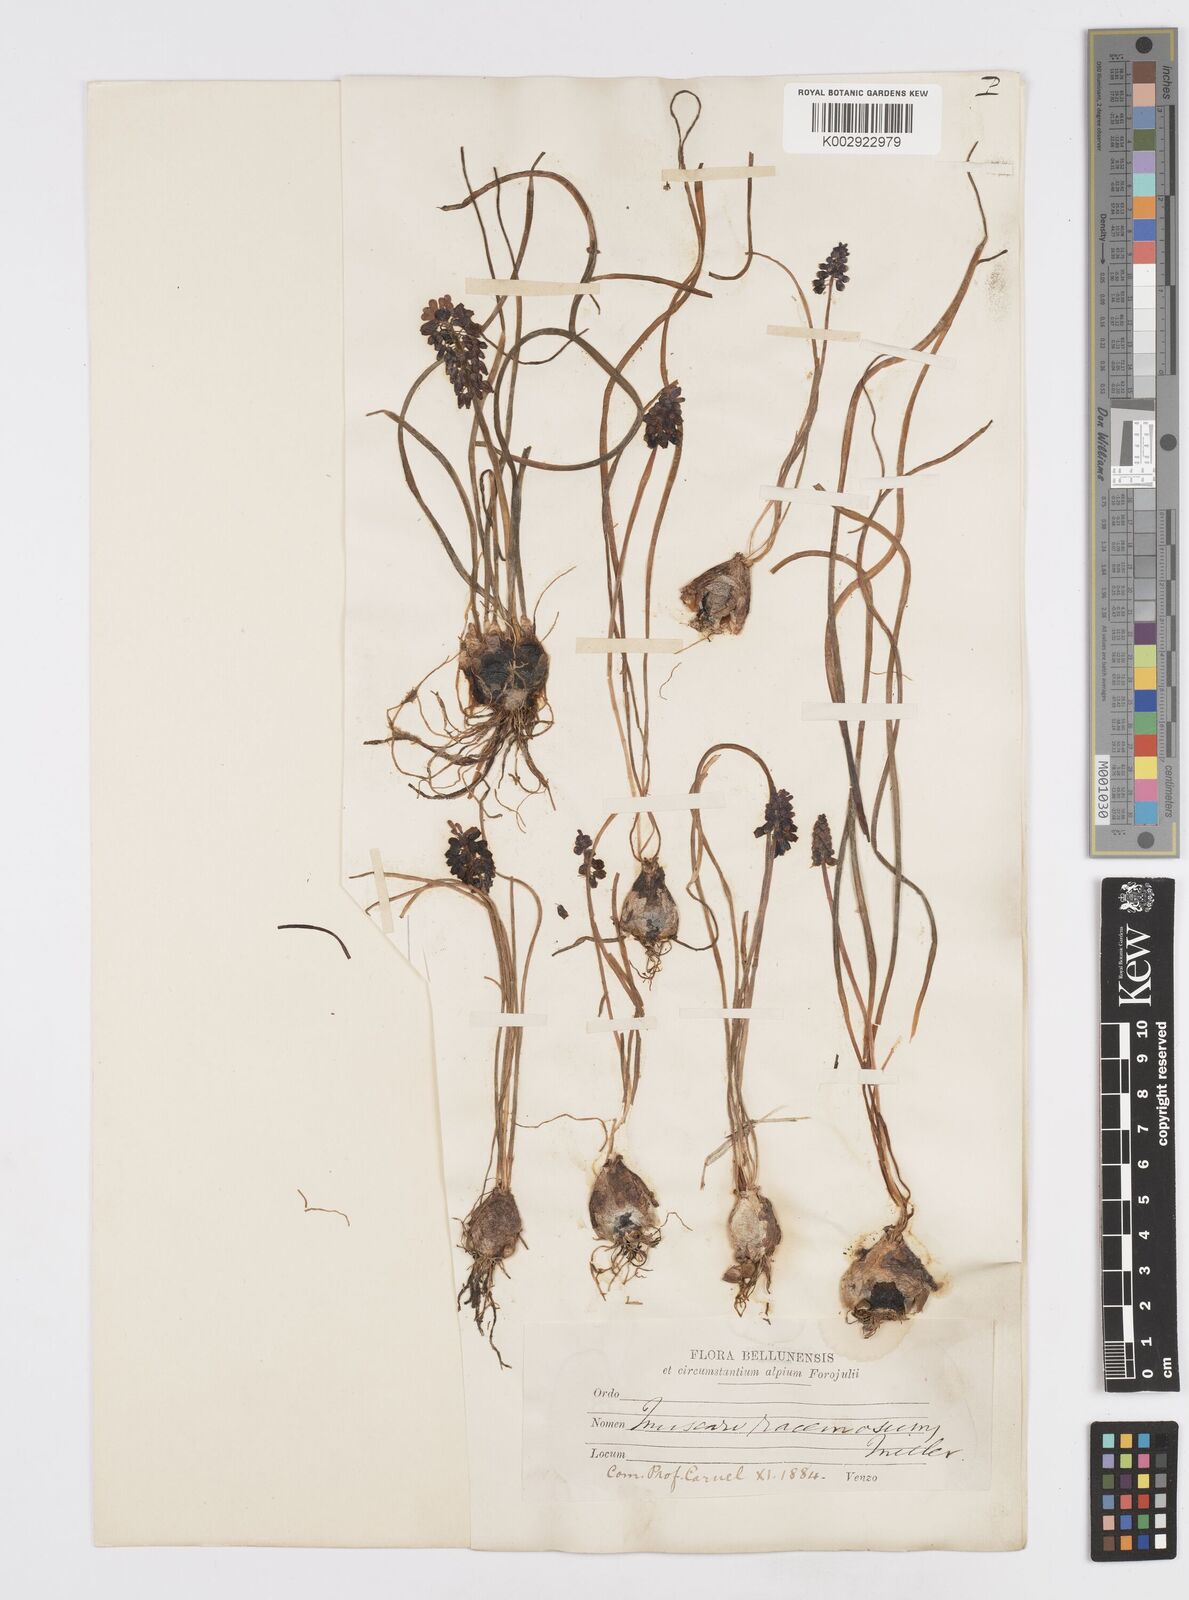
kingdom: Plantae
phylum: Tracheophyta
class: Liliopsida
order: Asparagales
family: Asparagaceae
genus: Muscarimia
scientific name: Muscarimia muscari
